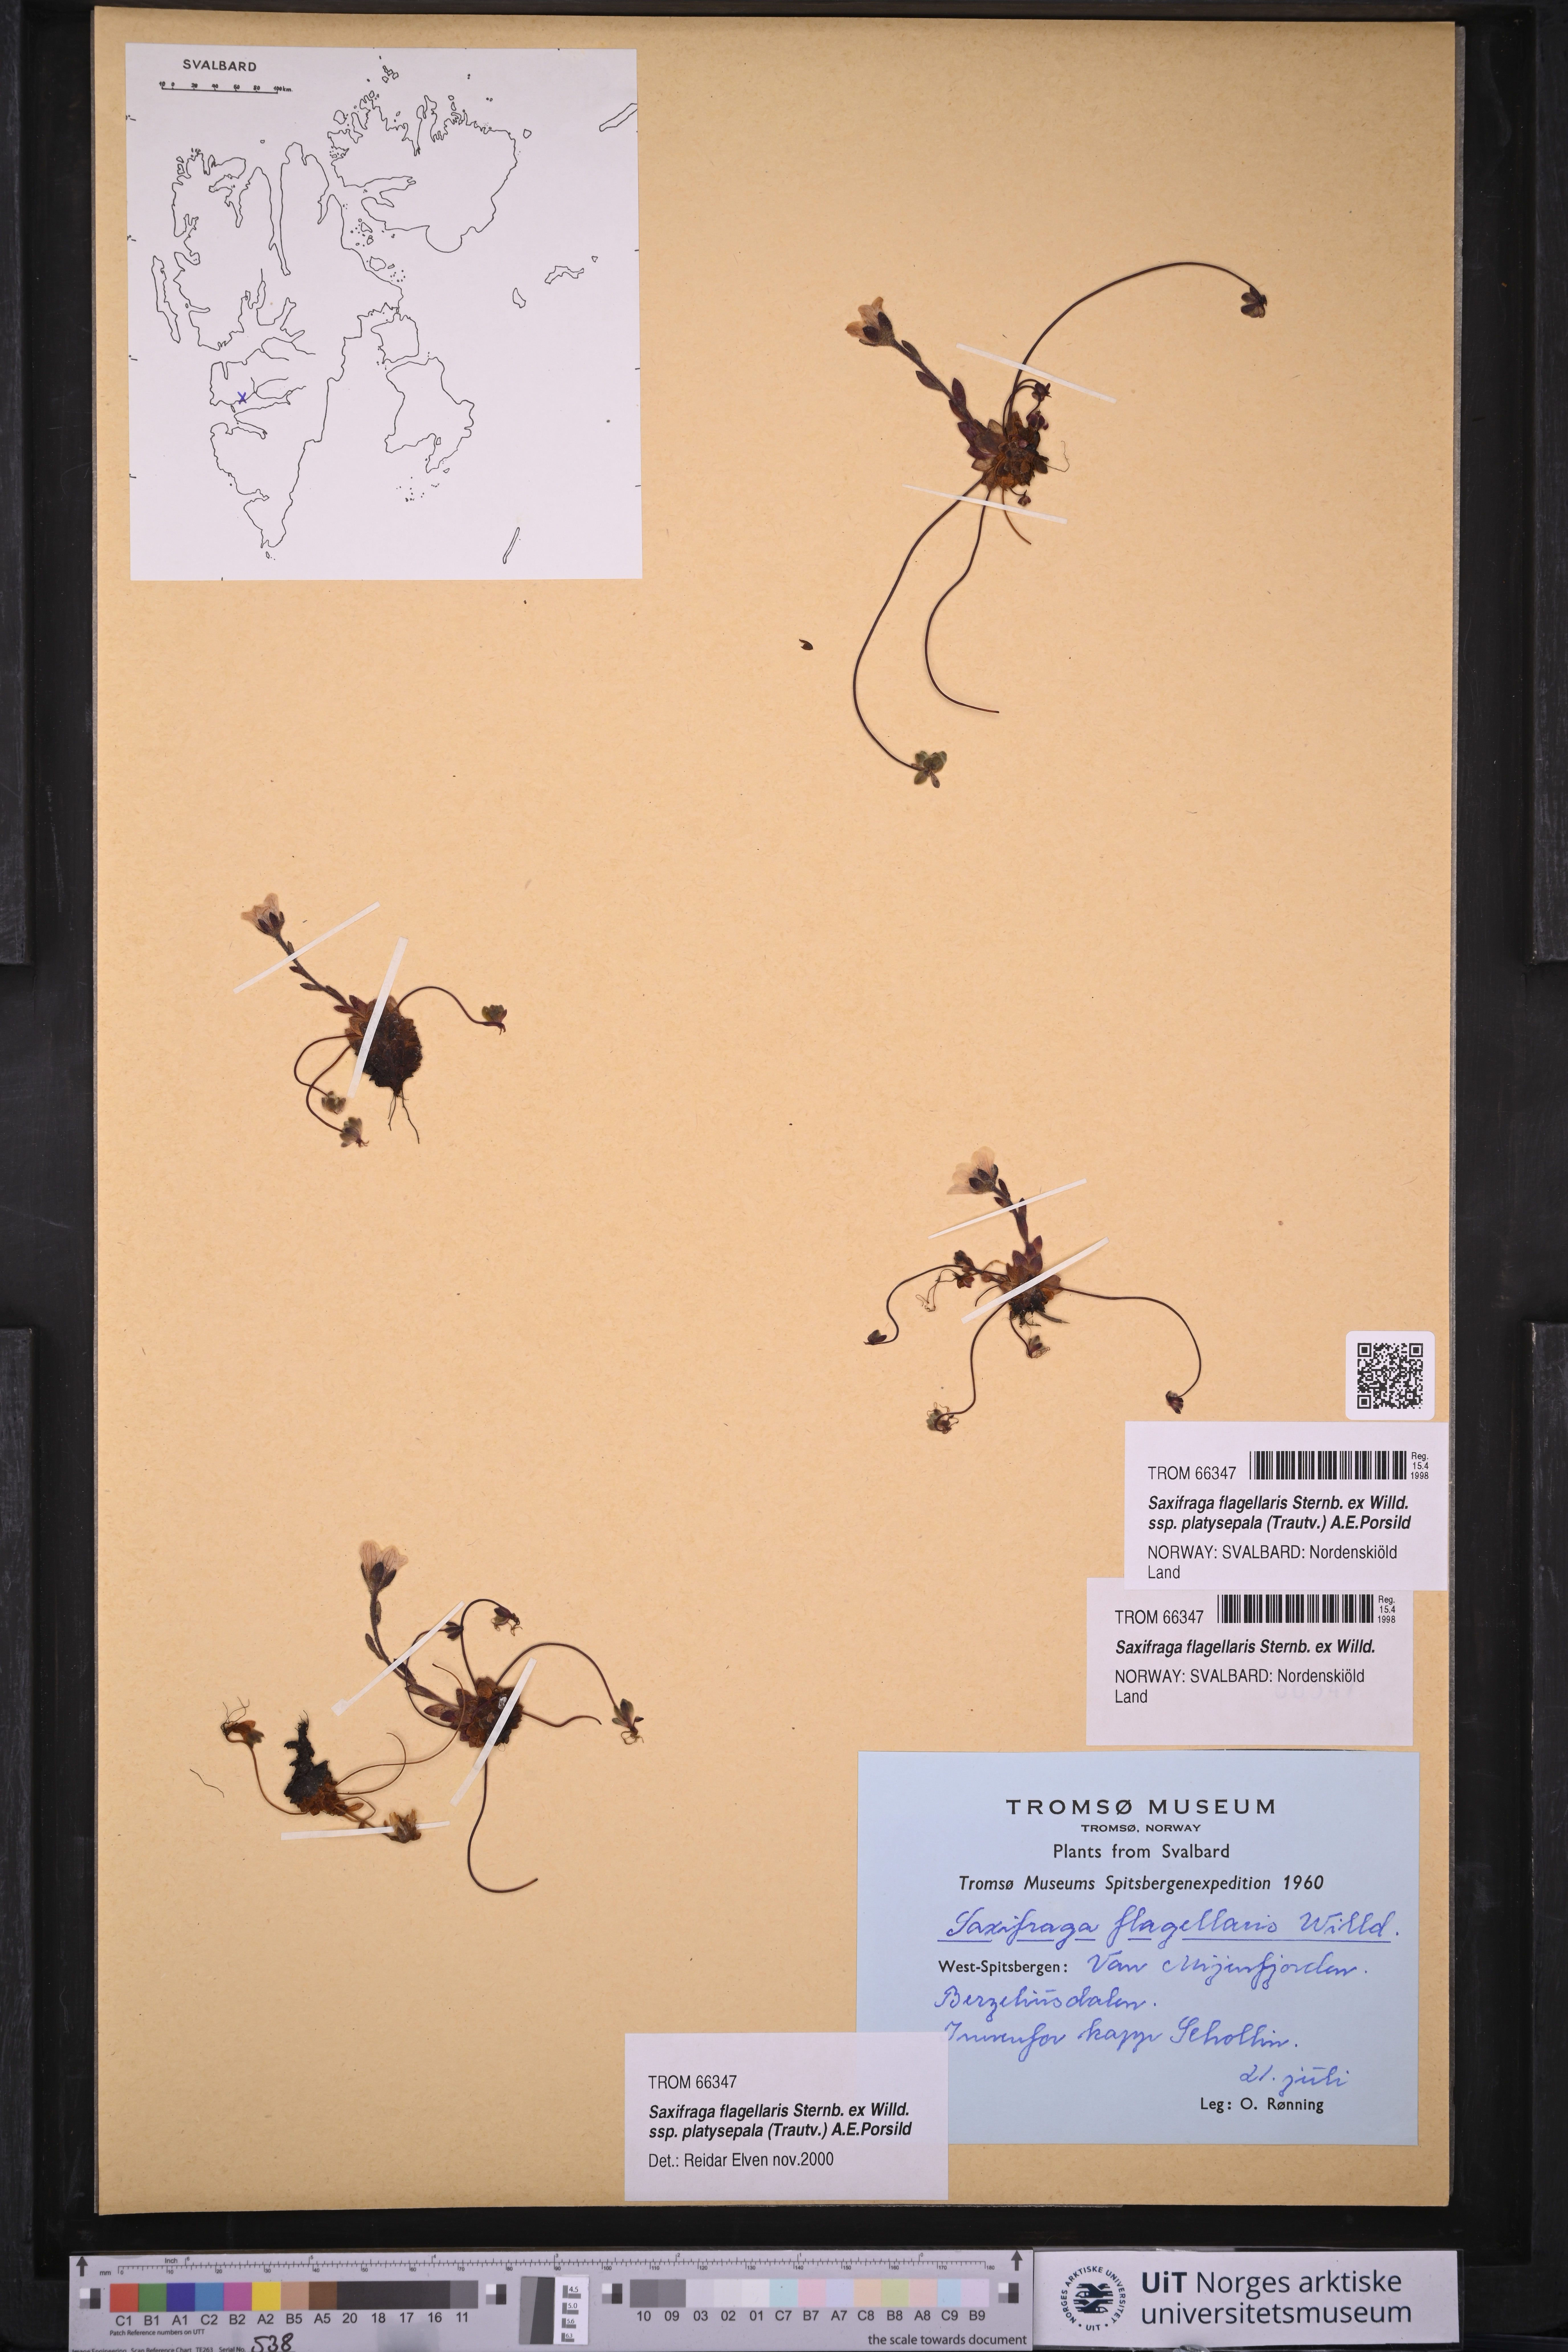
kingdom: Plantae
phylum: Tracheophyta
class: Magnoliopsida
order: Saxifragales
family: Saxifragaceae
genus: Saxifraga
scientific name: Saxifraga platysepala
